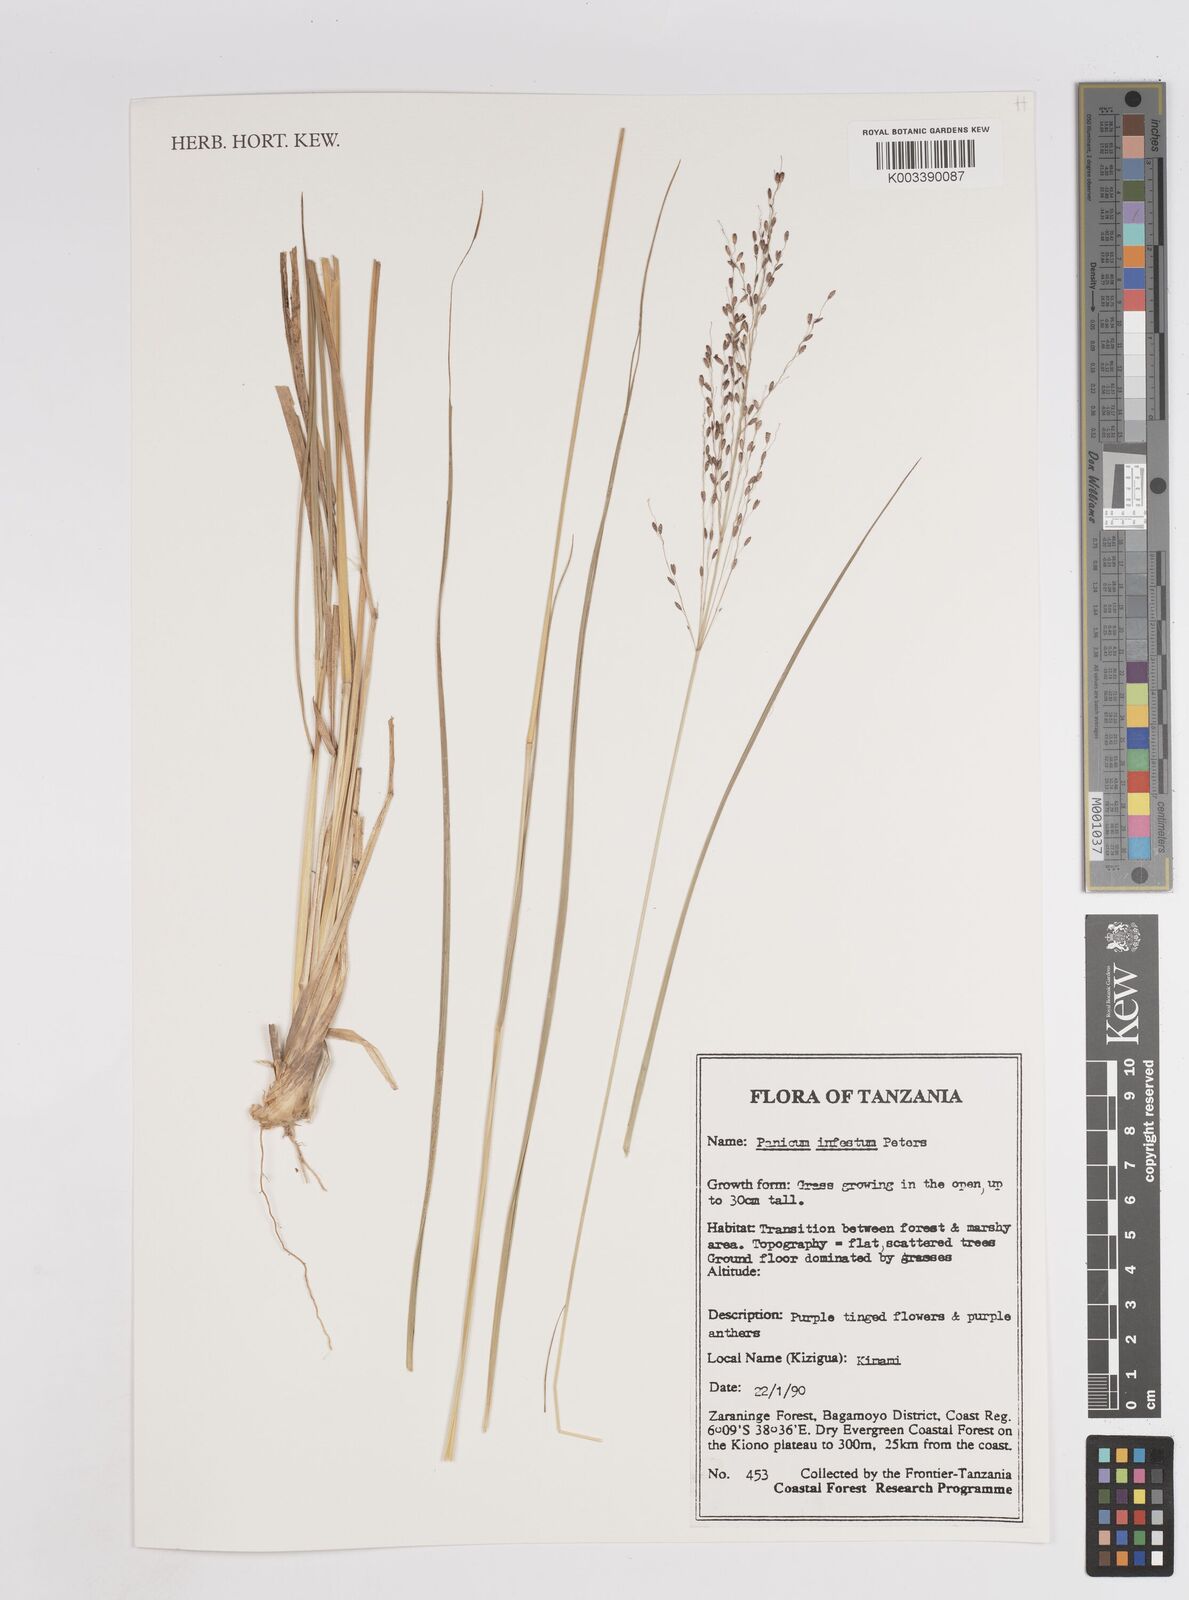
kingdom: Plantae
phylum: Tracheophyta
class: Liliopsida
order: Poales
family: Poaceae
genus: Megathyrsus
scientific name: Megathyrsus infestus
